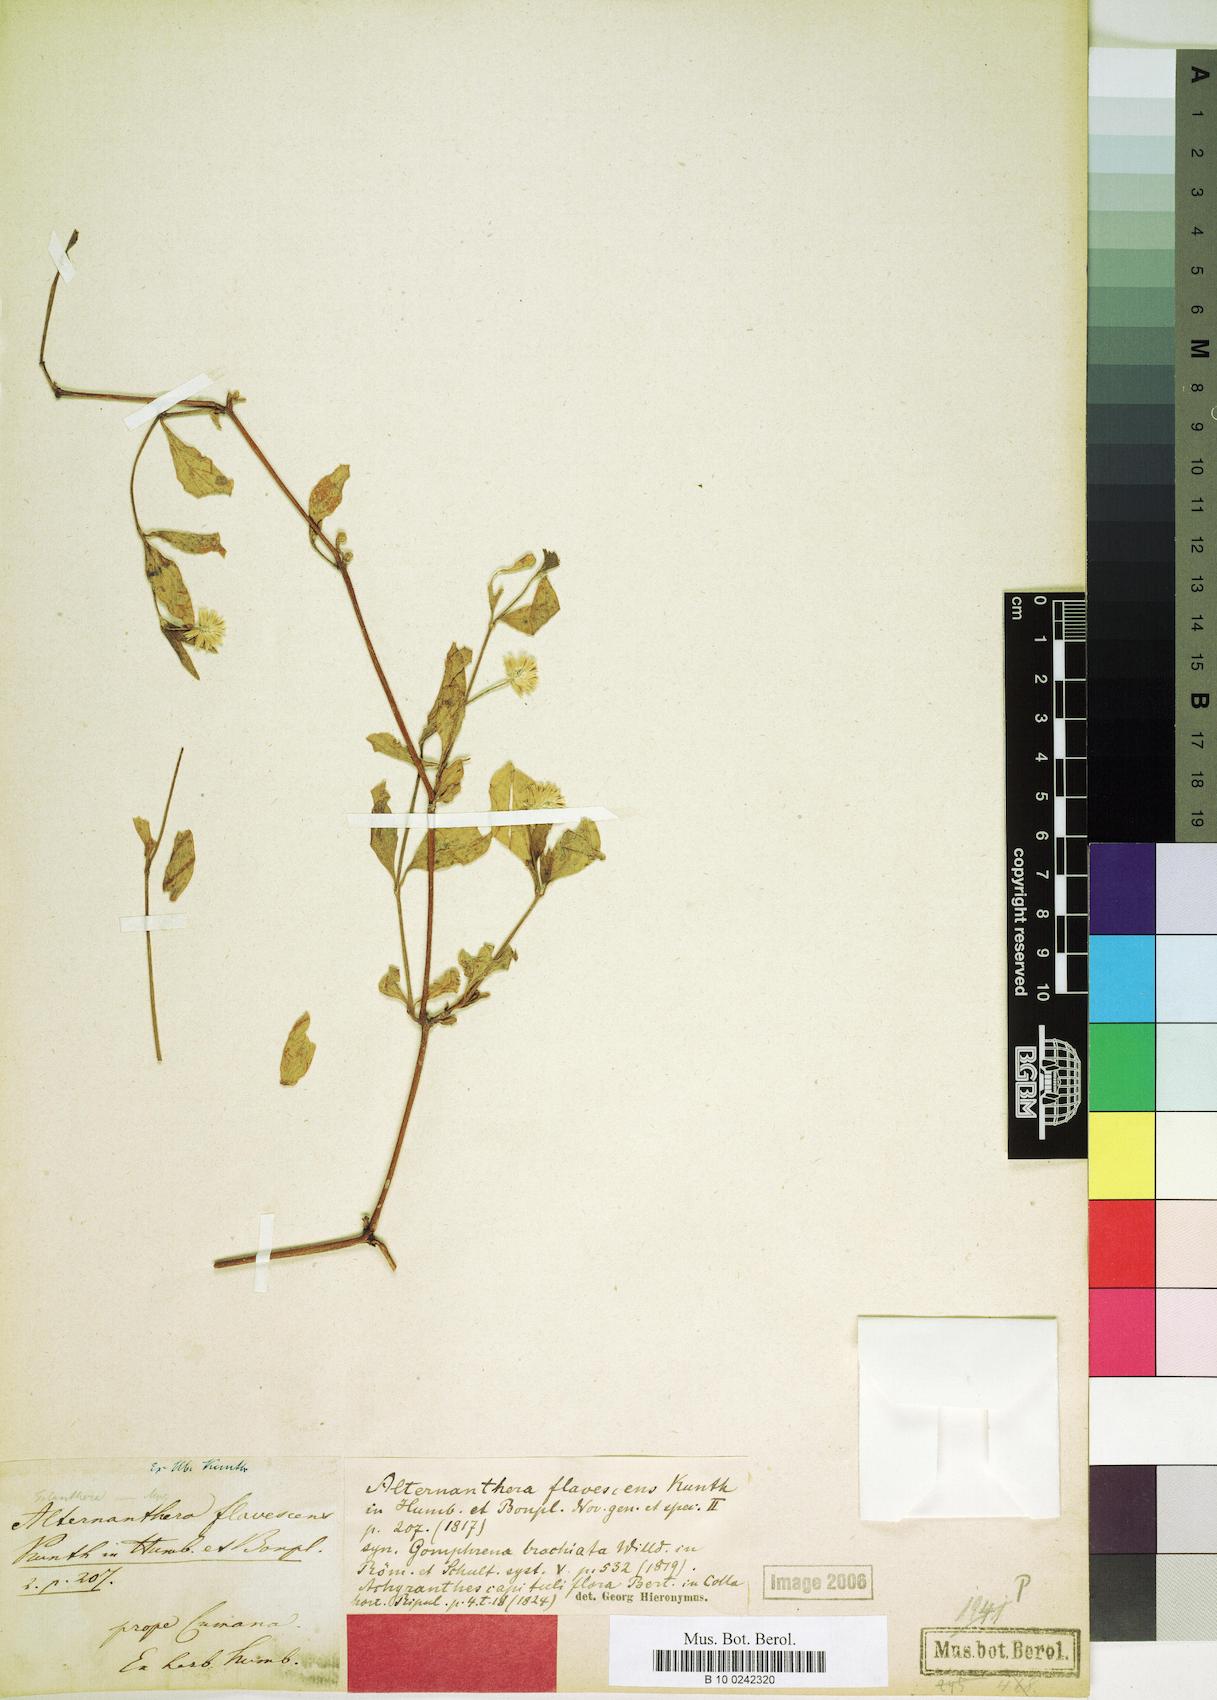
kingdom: Plantae
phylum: Tracheophyta
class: Magnoliopsida
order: Caryophyllales
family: Amaranthaceae
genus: Alternanthera
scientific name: Alternanthera flavescens
